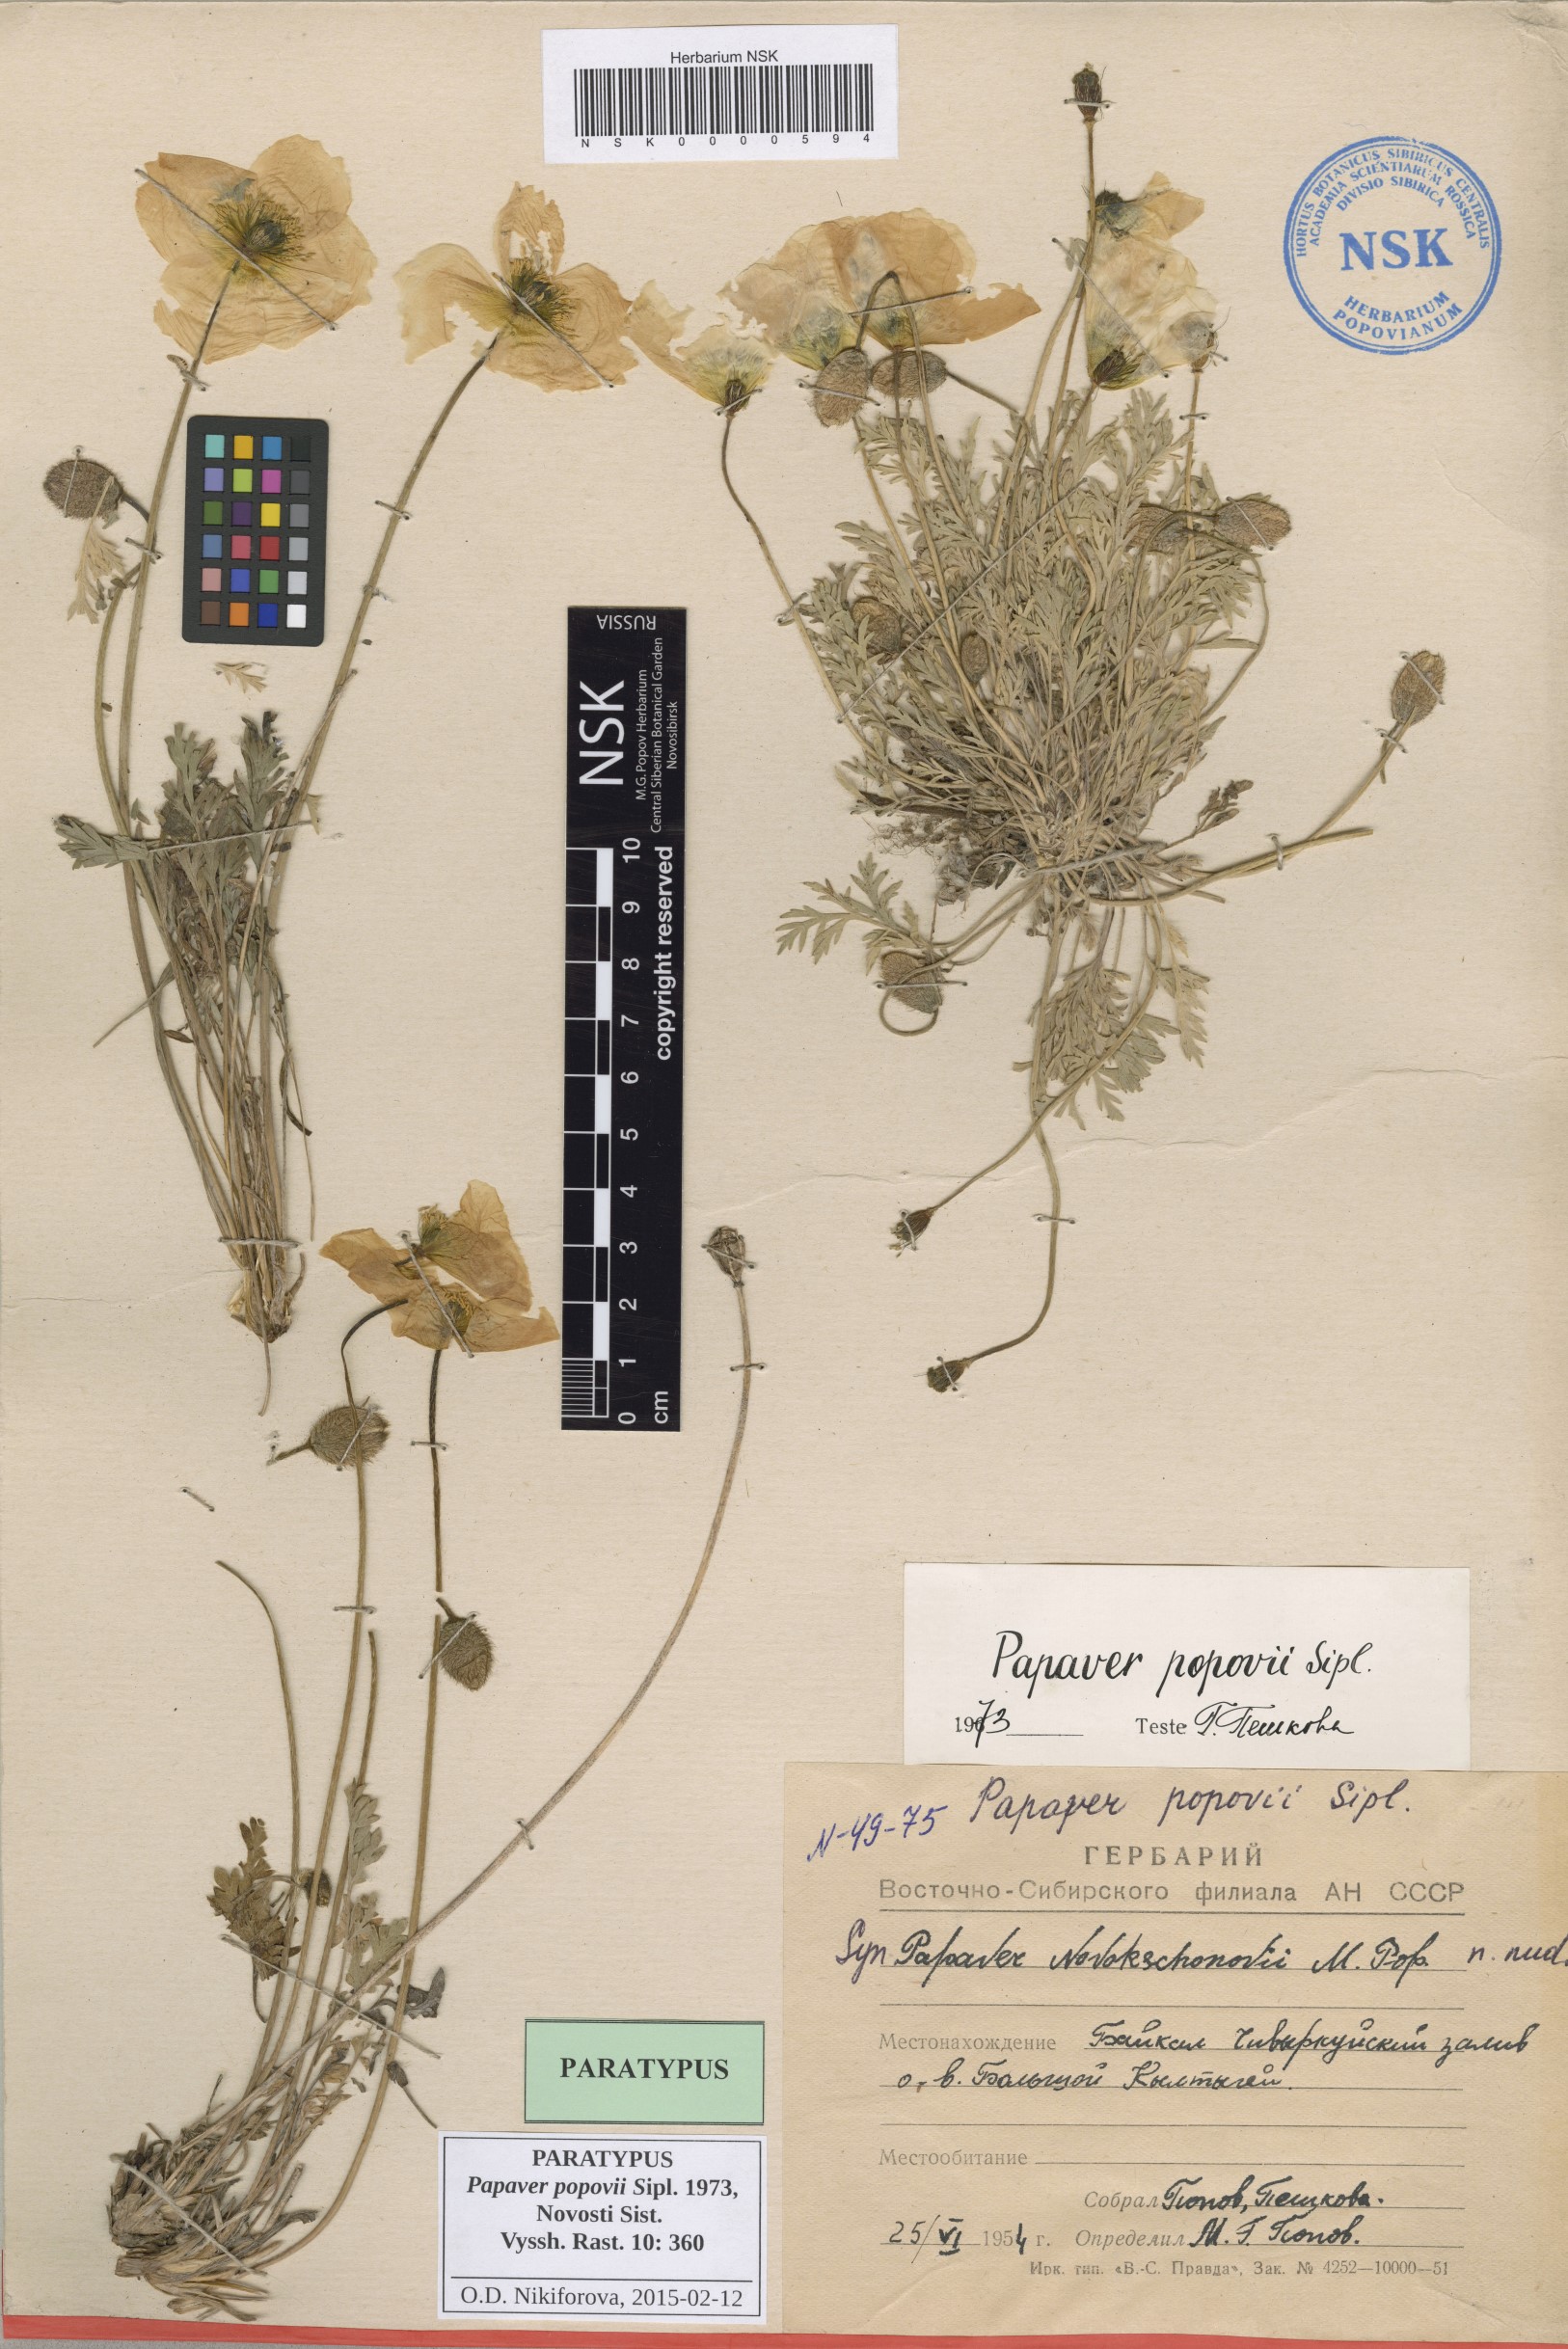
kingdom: Plantae
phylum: Tracheophyta
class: Magnoliopsida
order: Ranunculales
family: Papaveraceae
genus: Papaver
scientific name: Papaver popovii
